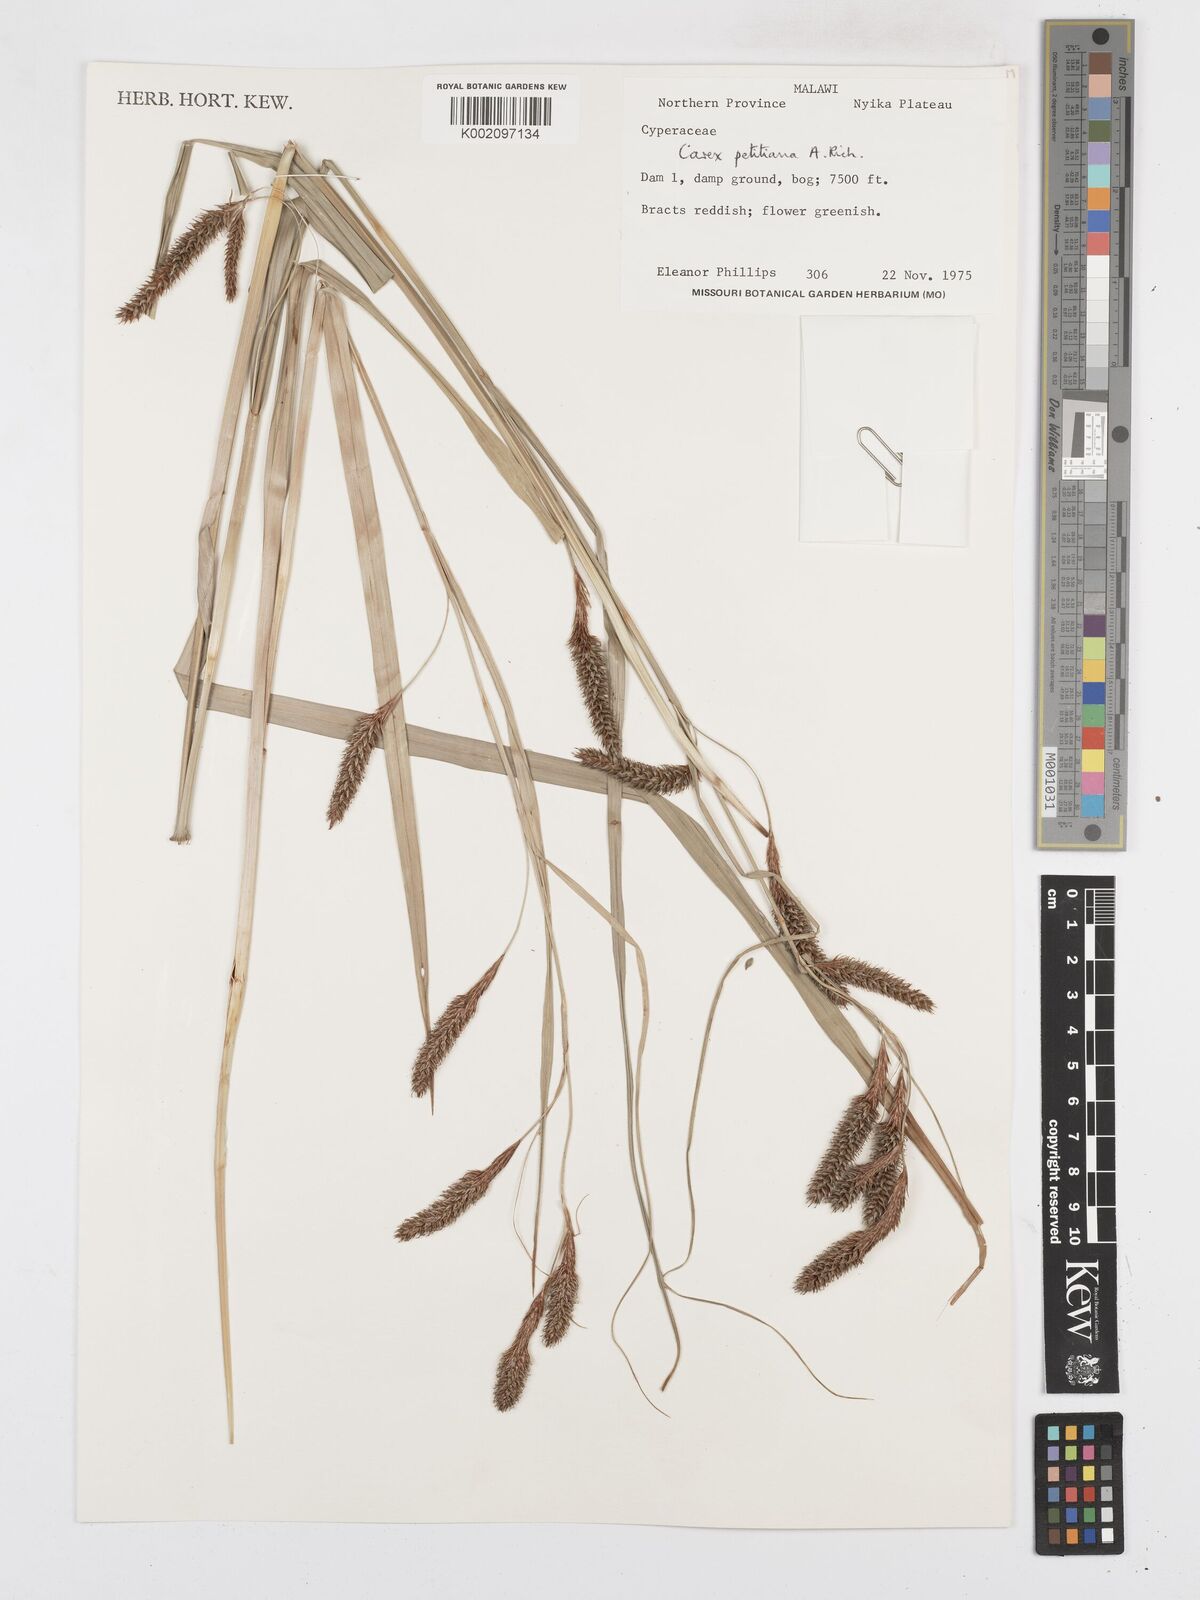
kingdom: Plantae
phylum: Tracheophyta
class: Liliopsida
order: Poales
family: Cyperaceae
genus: Carex
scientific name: Carex petitiana
